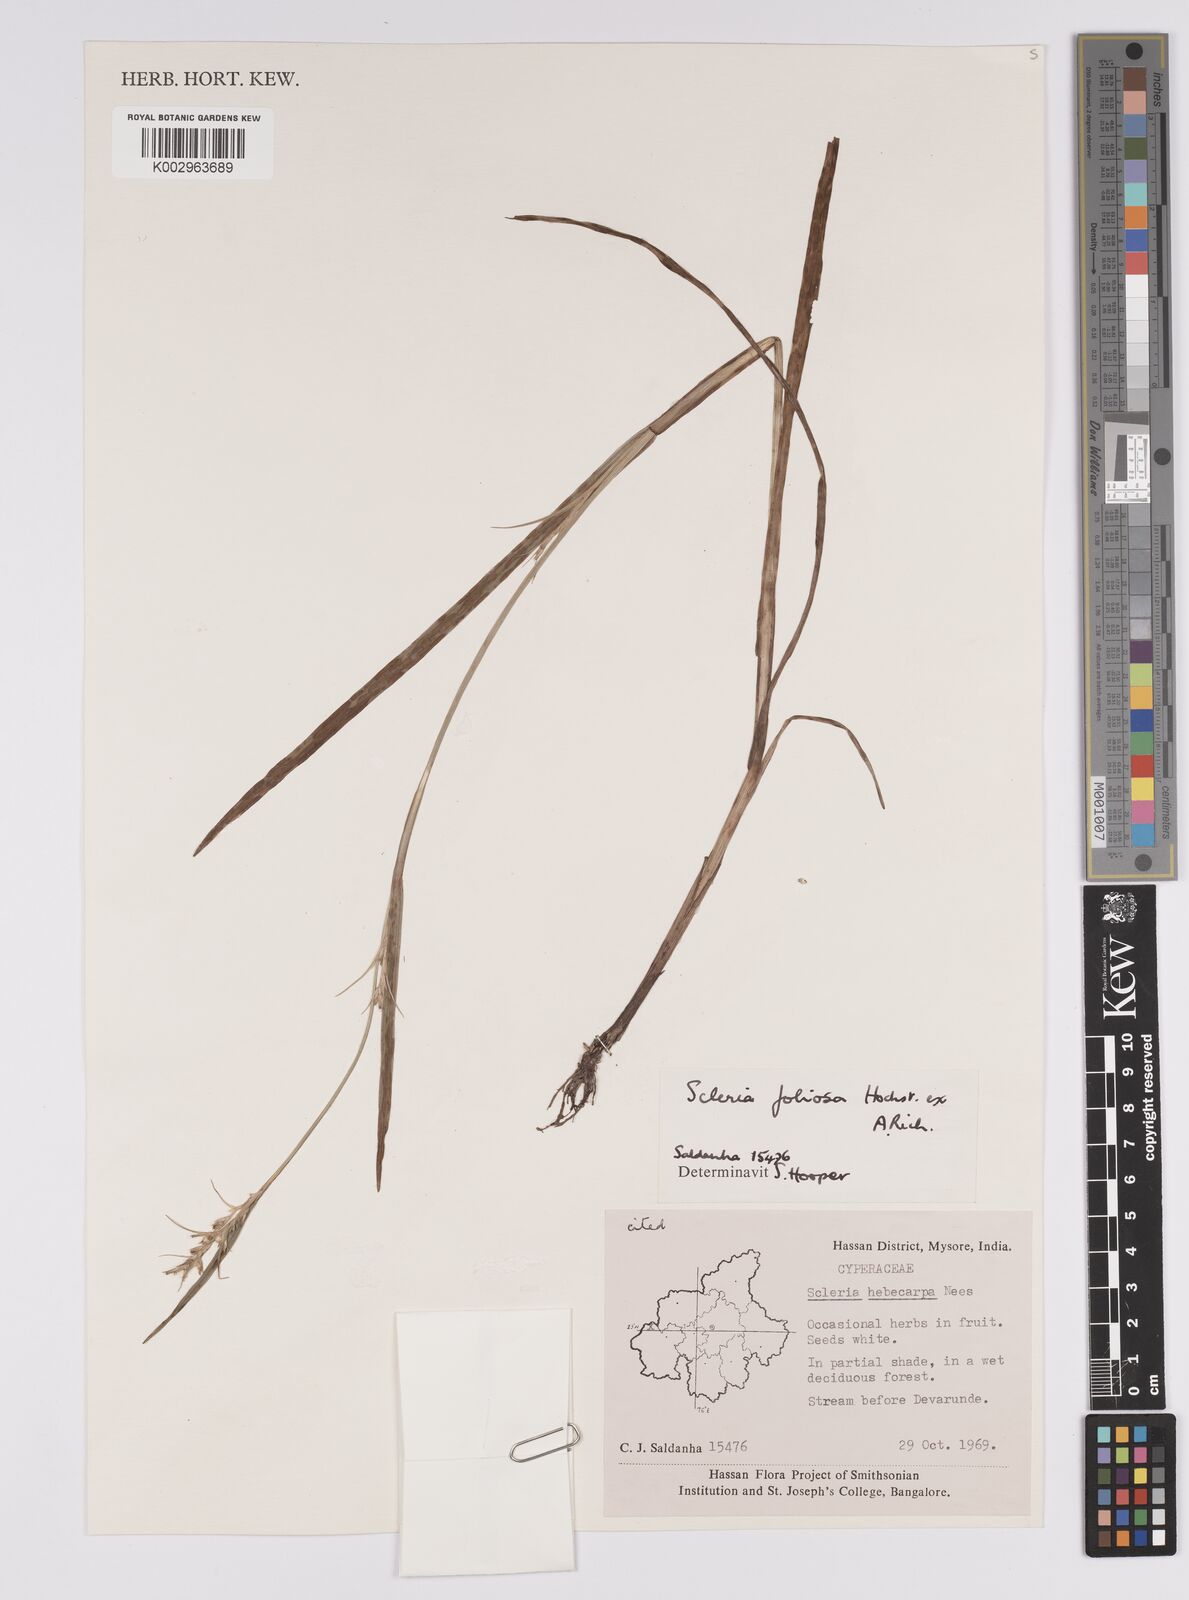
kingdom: Plantae
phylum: Tracheophyta
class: Liliopsida
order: Poales
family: Cyperaceae
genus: Scleria
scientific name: Scleria foliosa
